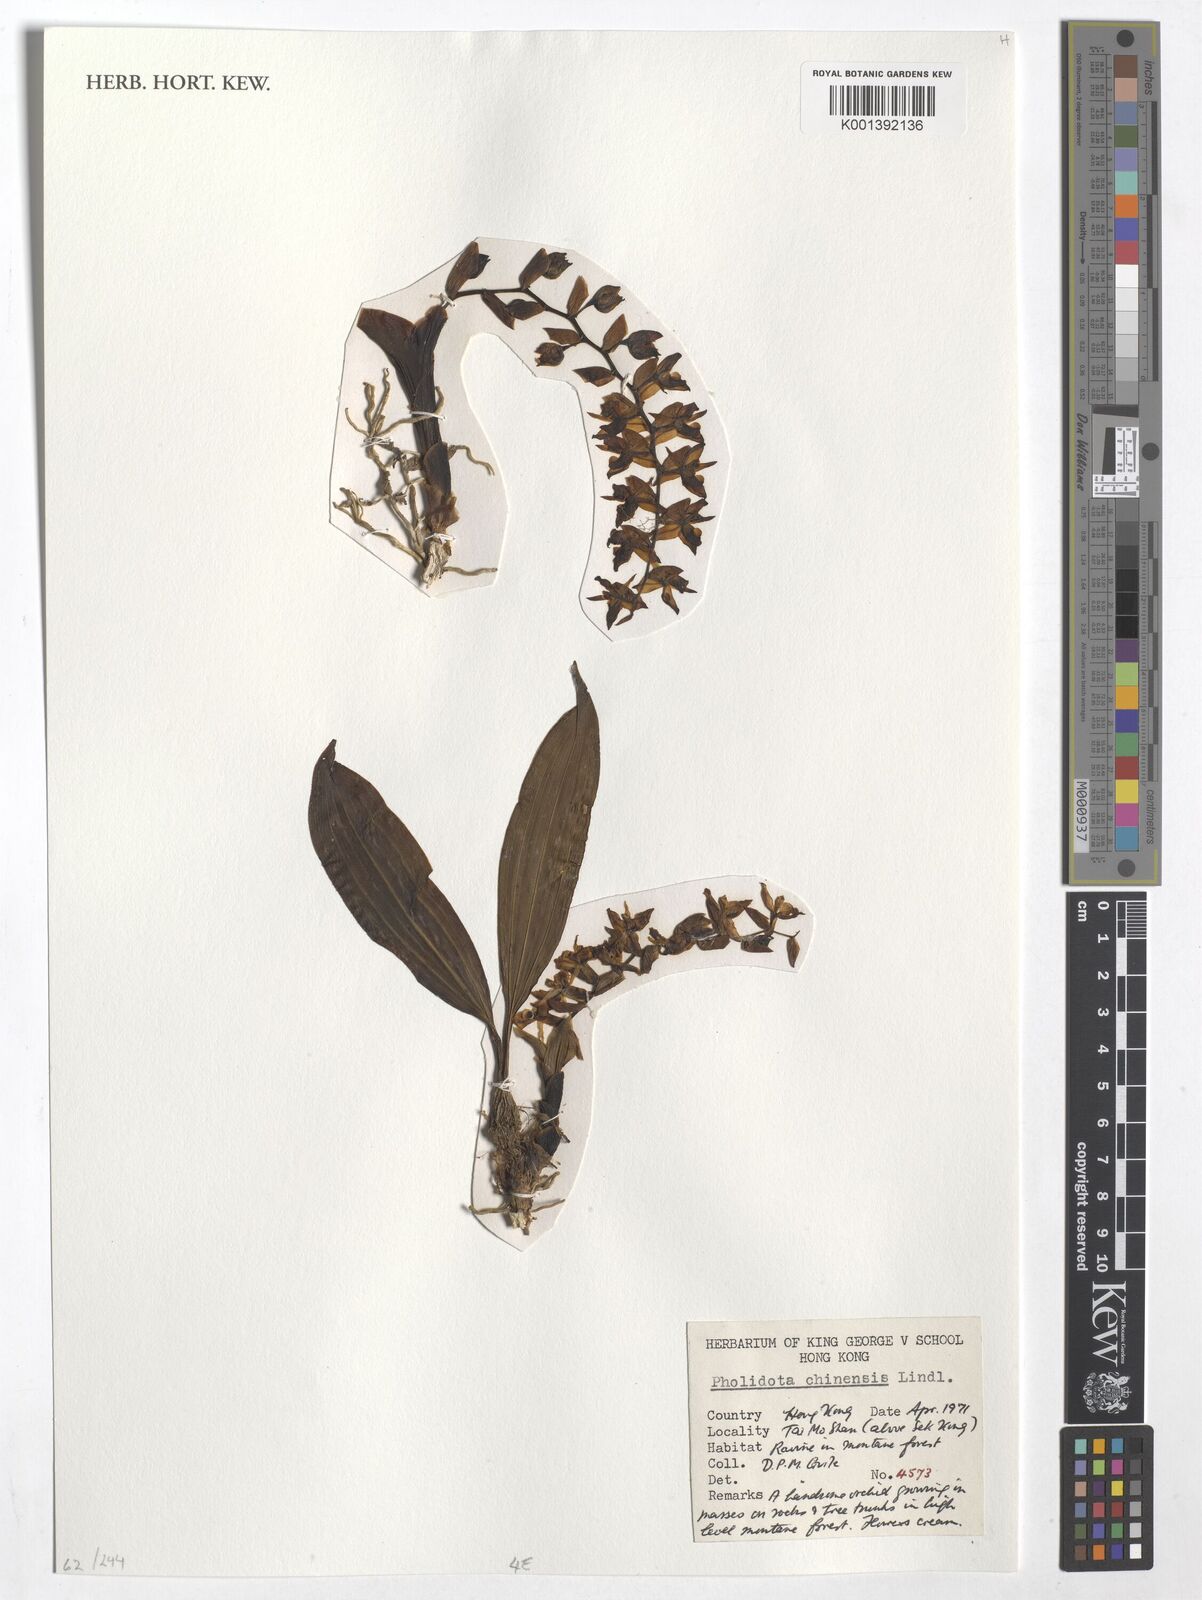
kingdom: Plantae
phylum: Tracheophyta
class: Liliopsida
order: Asparagales
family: Orchidaceae
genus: Coelogyne
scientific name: Coelogyne chinensis
